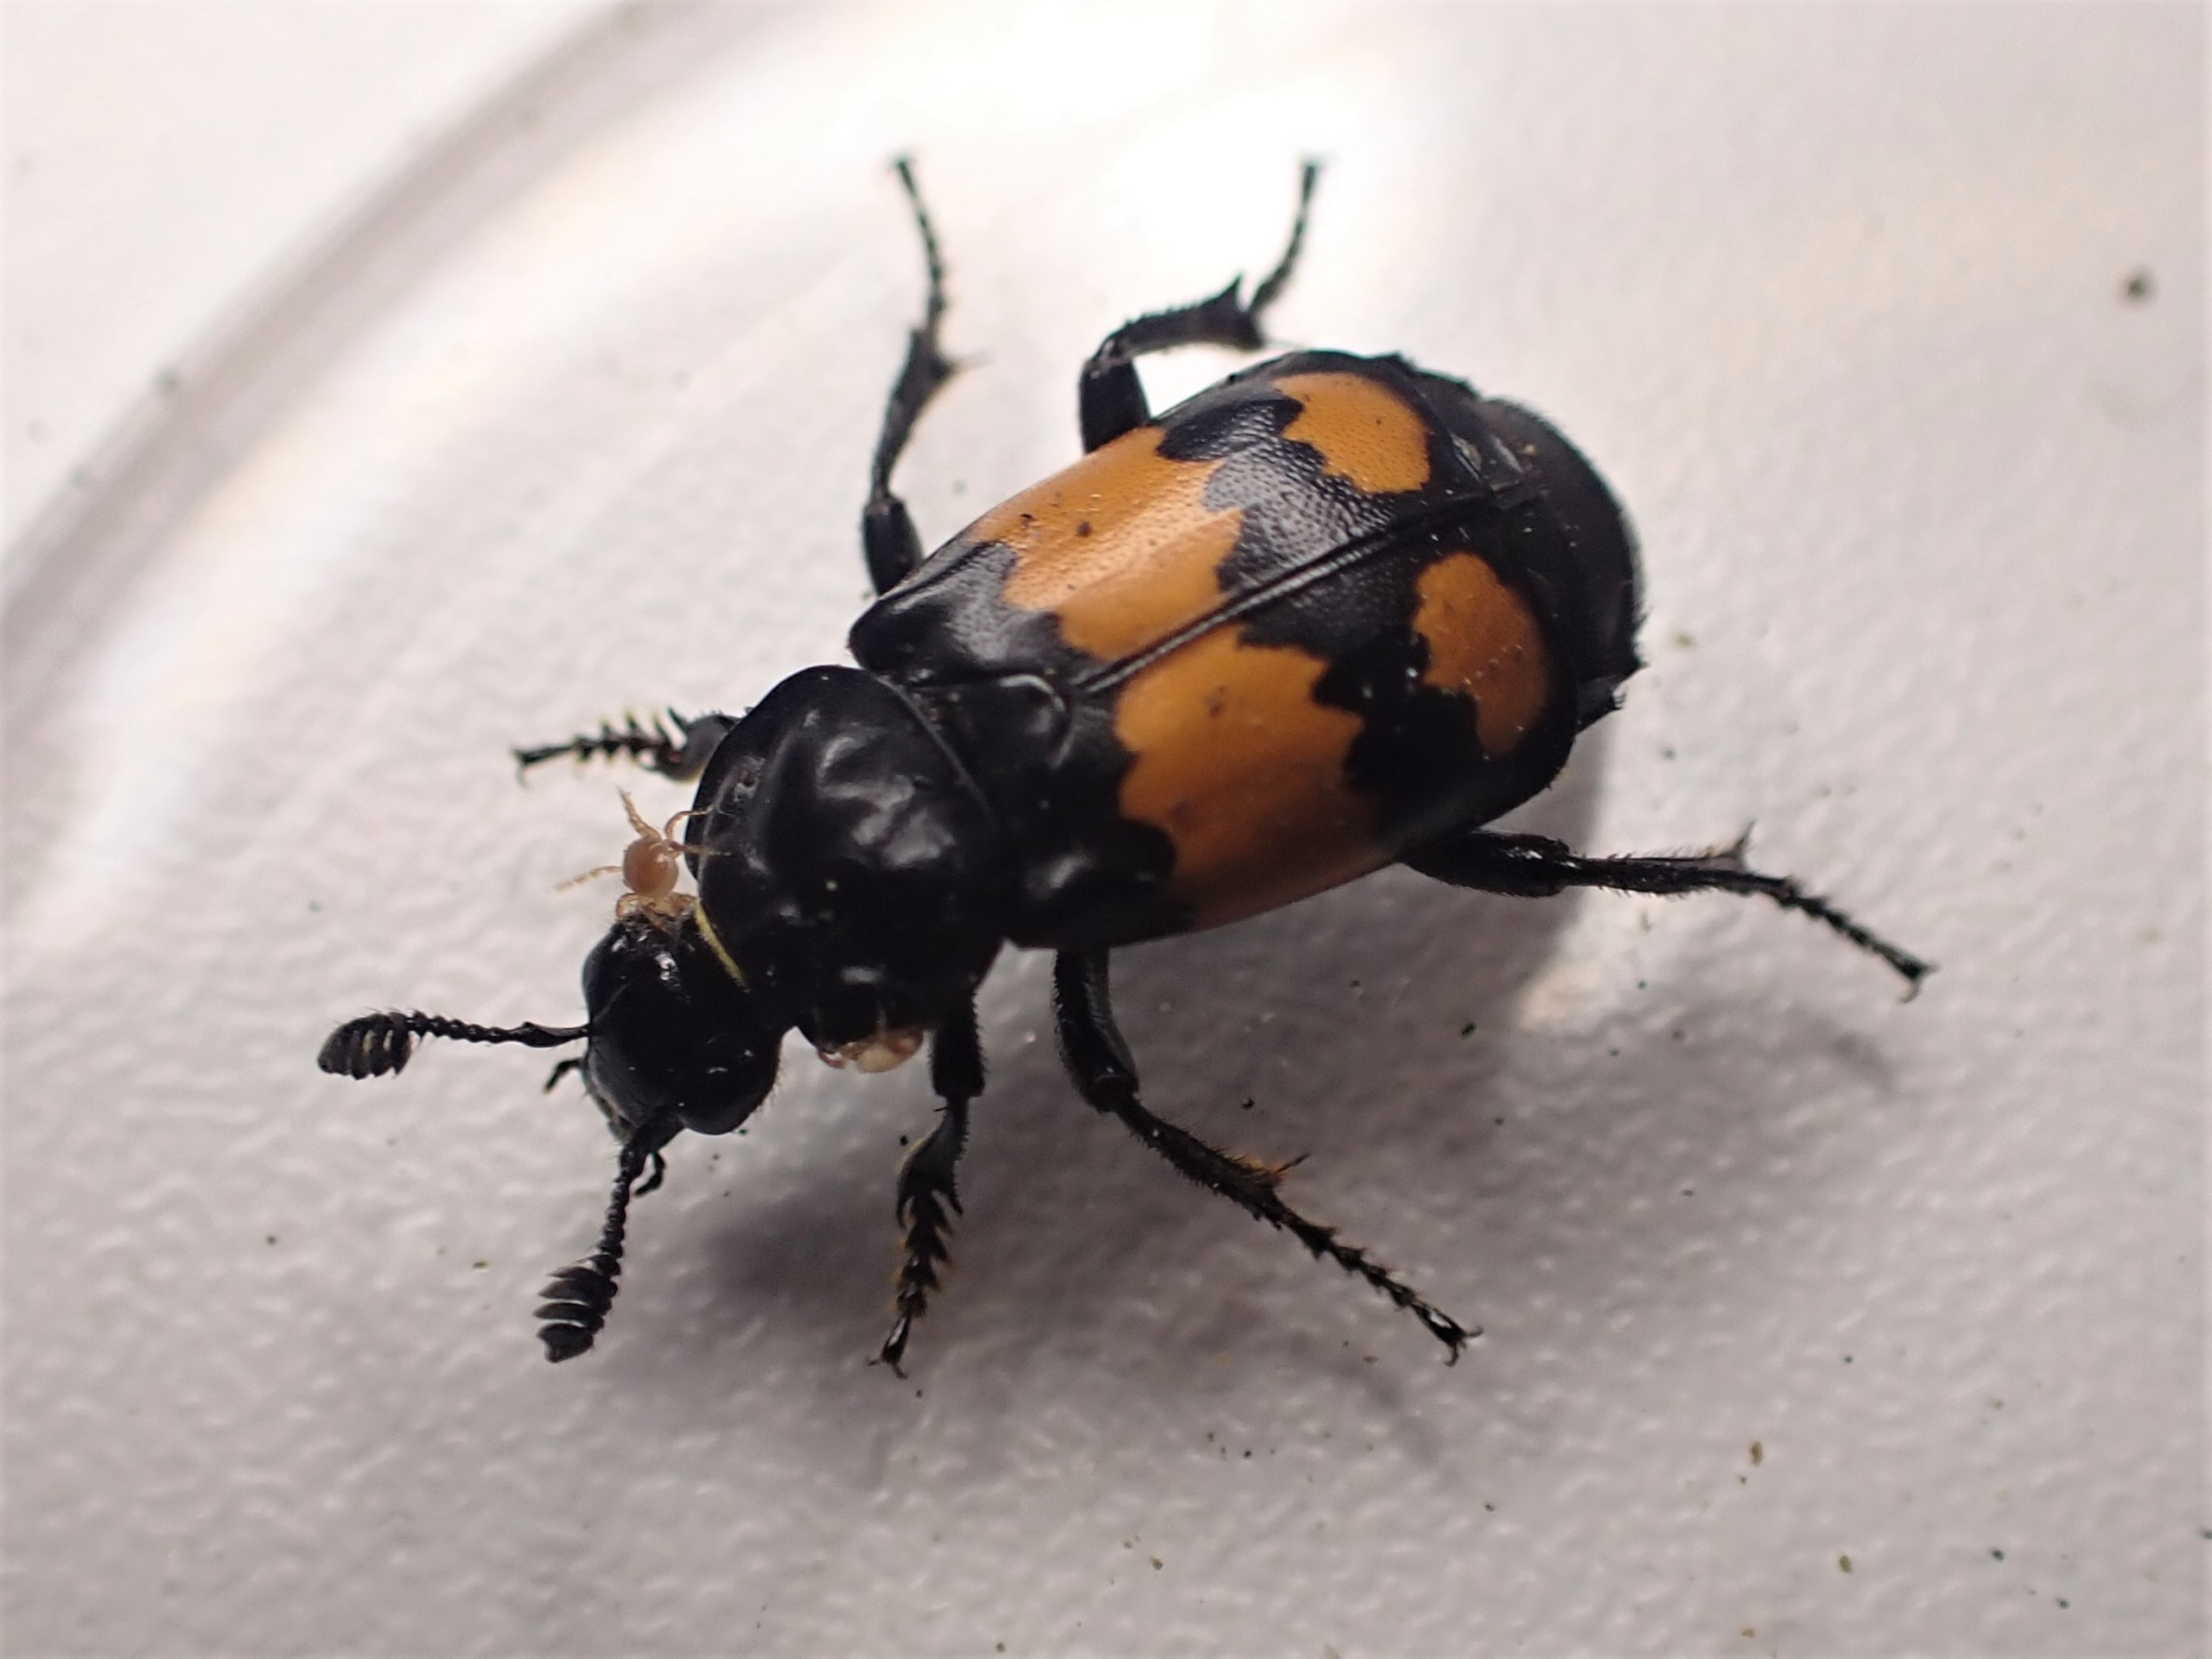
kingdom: Animalia
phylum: Arthropoda
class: Insecta
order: Coleoptera
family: Staphylinidae
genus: Nicrophorus
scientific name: Nicrophorus vespilloides
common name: Sortkøllet ådselgraver
